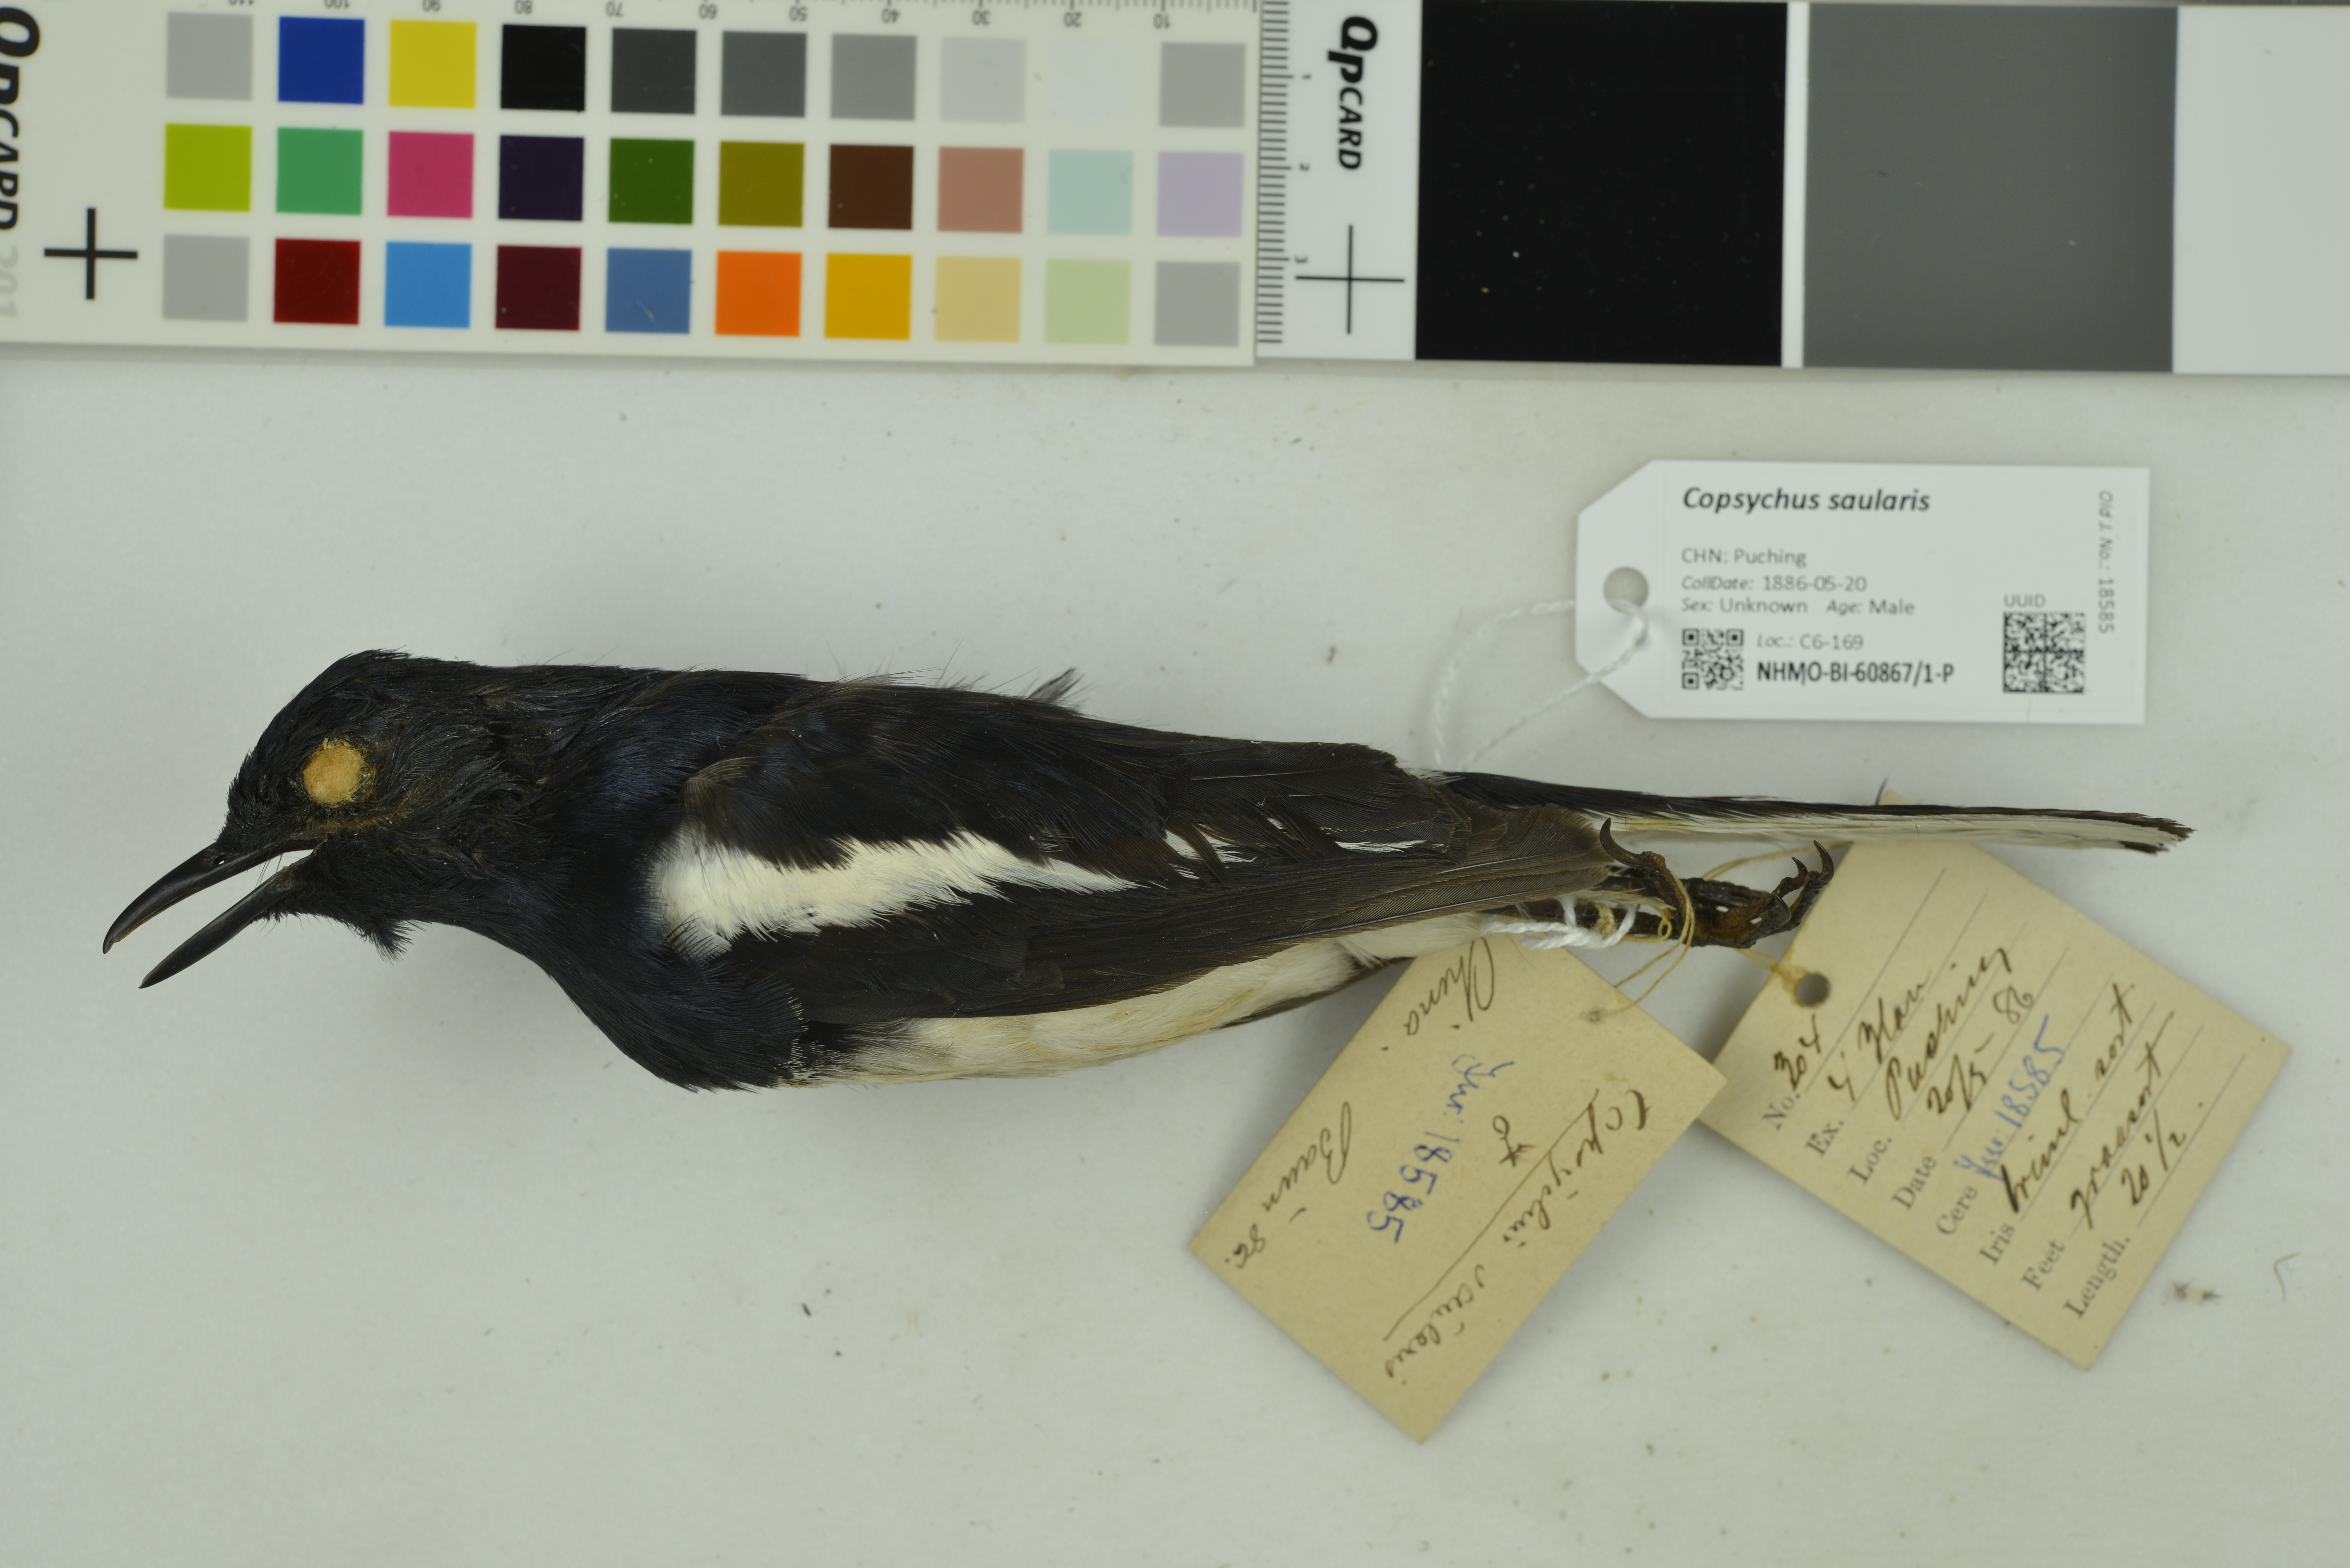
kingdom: Animalia
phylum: Chordata
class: Aves
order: Passeriformes
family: Muscicapidae
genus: Copsychus
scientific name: Copsychus saularis
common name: Oriental magpie-robin
